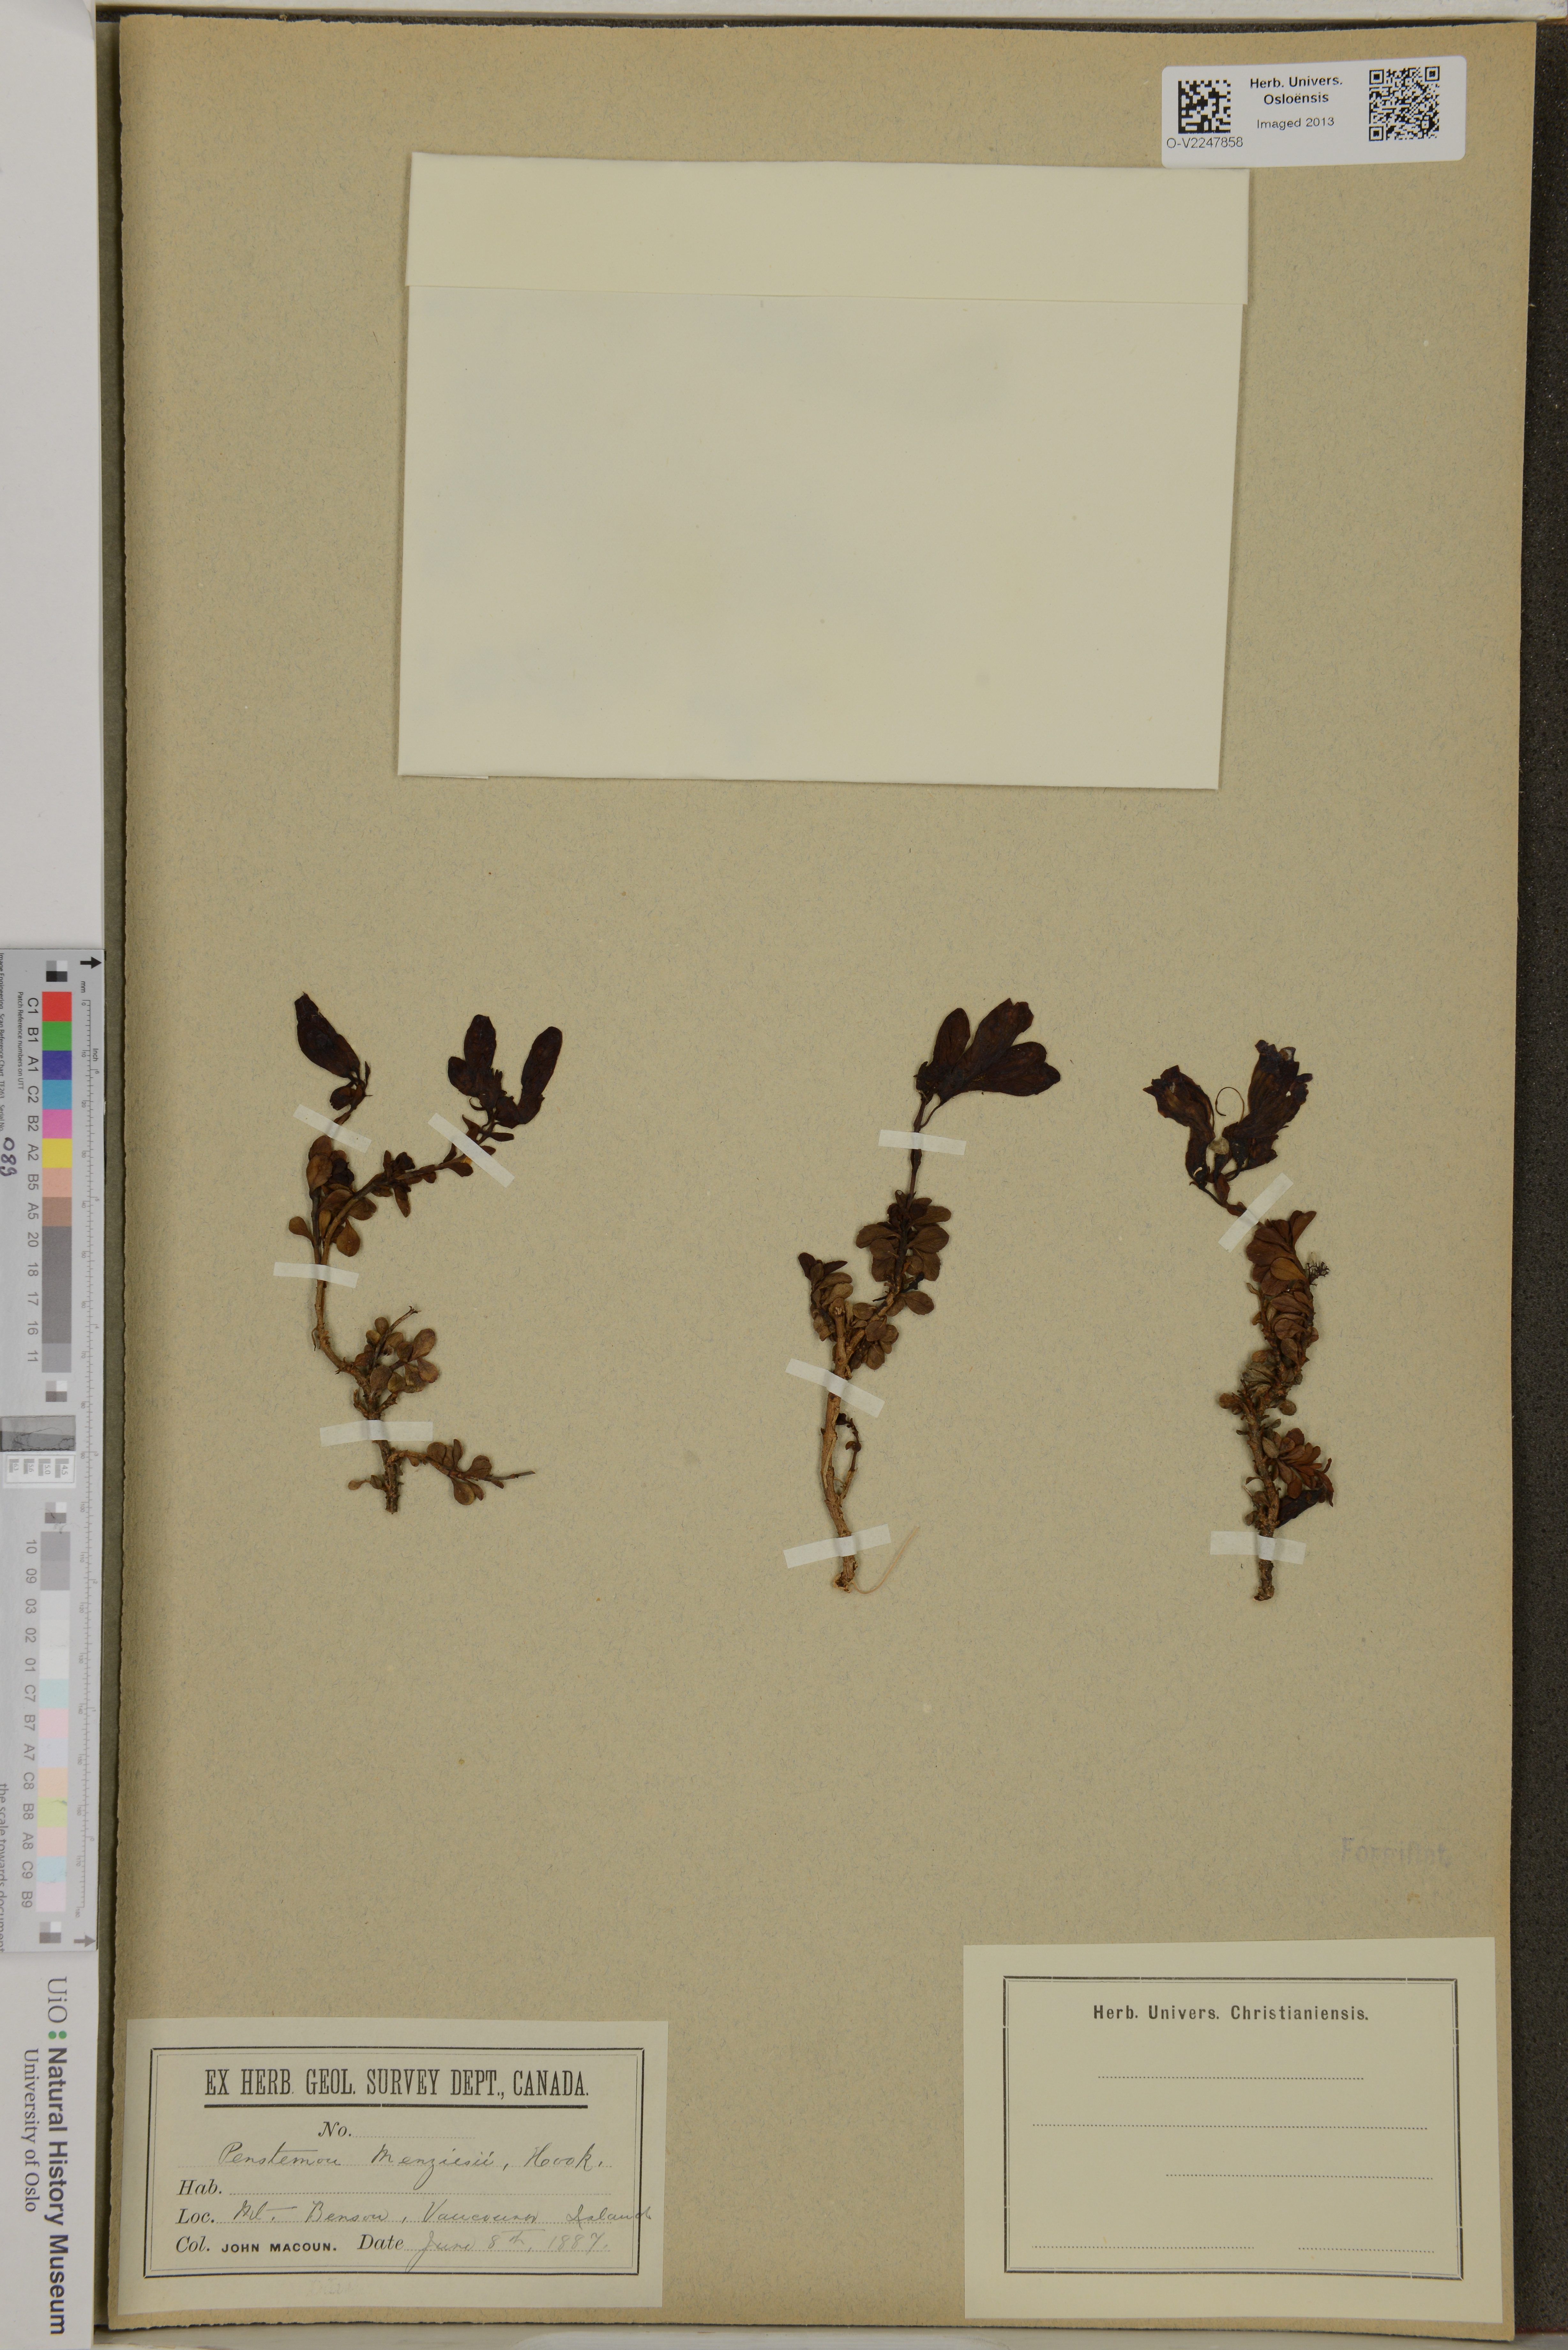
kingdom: Plantae
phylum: Tracheophyta
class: Magnoliopsida
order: Lamiales
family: Plantaginaceae
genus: Penstemon
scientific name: Penstemon fruticosus
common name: Bush penstemon
